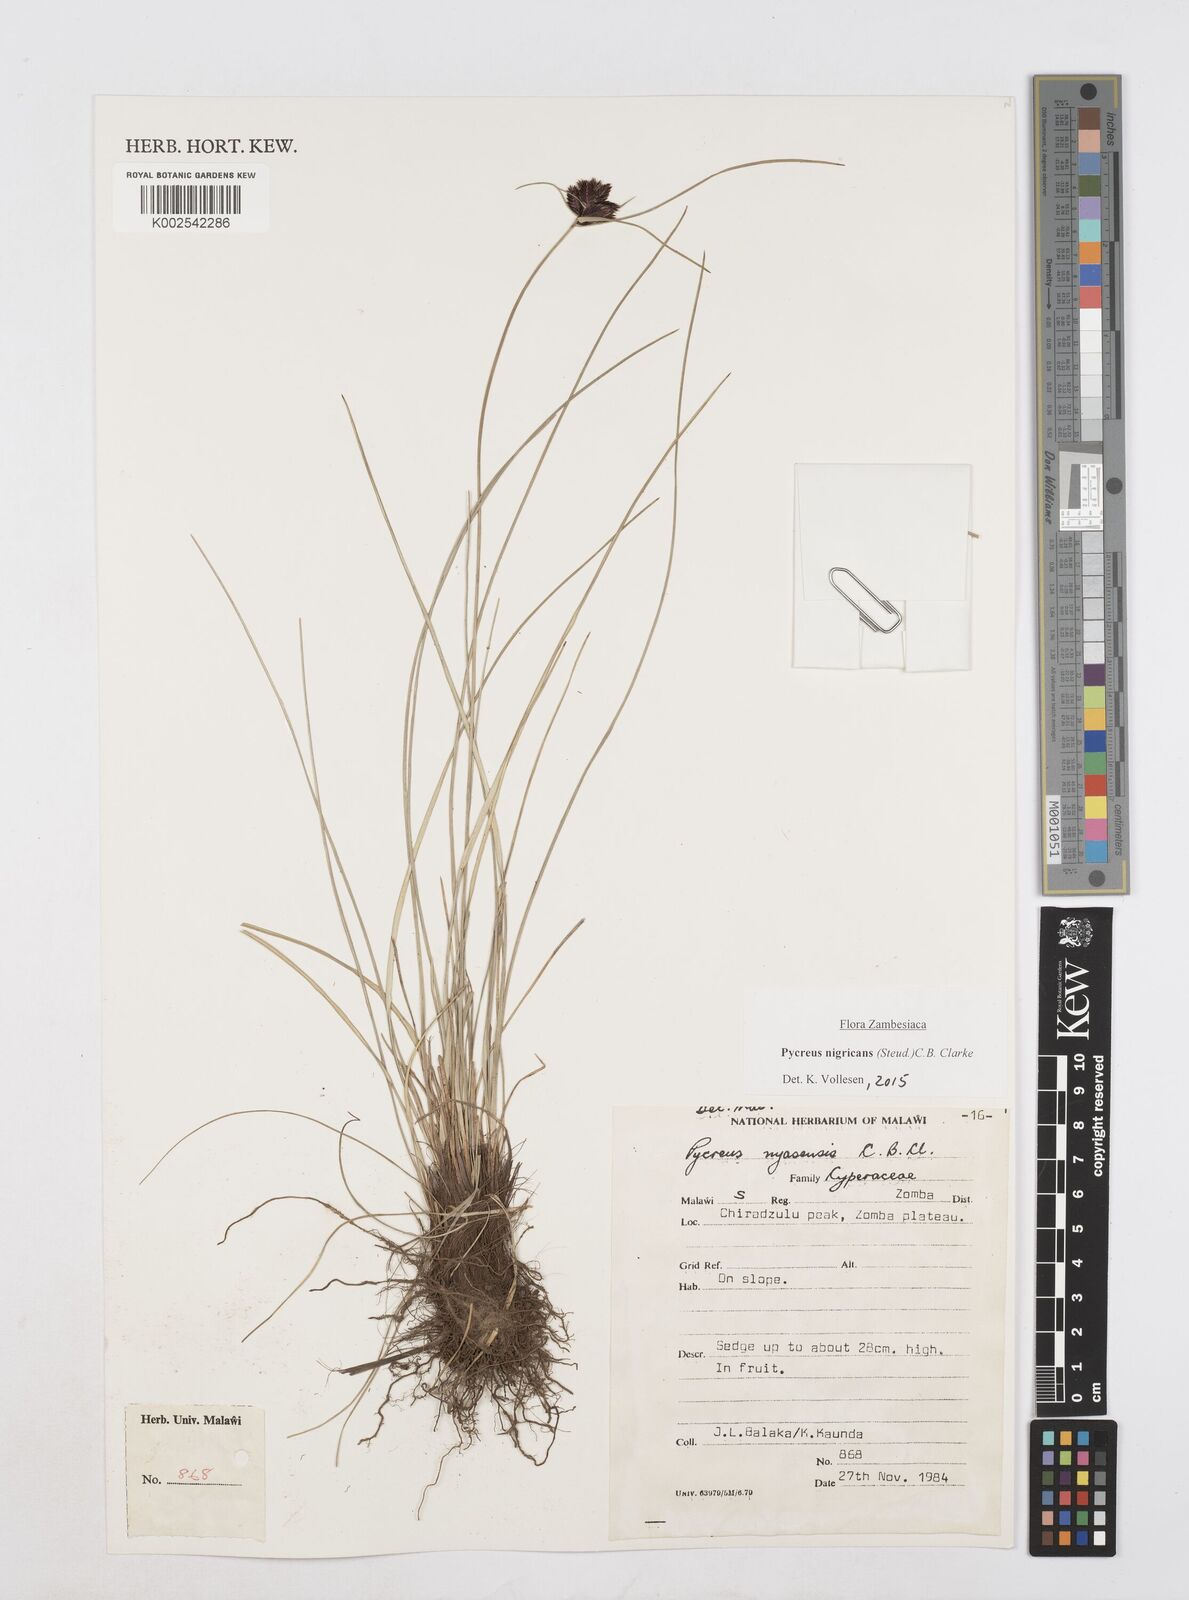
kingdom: Plantae
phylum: Tracheophyta
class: Liliopsida
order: Poales
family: Cyperaceae
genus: Cyperus
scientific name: Cyperus nigricans
